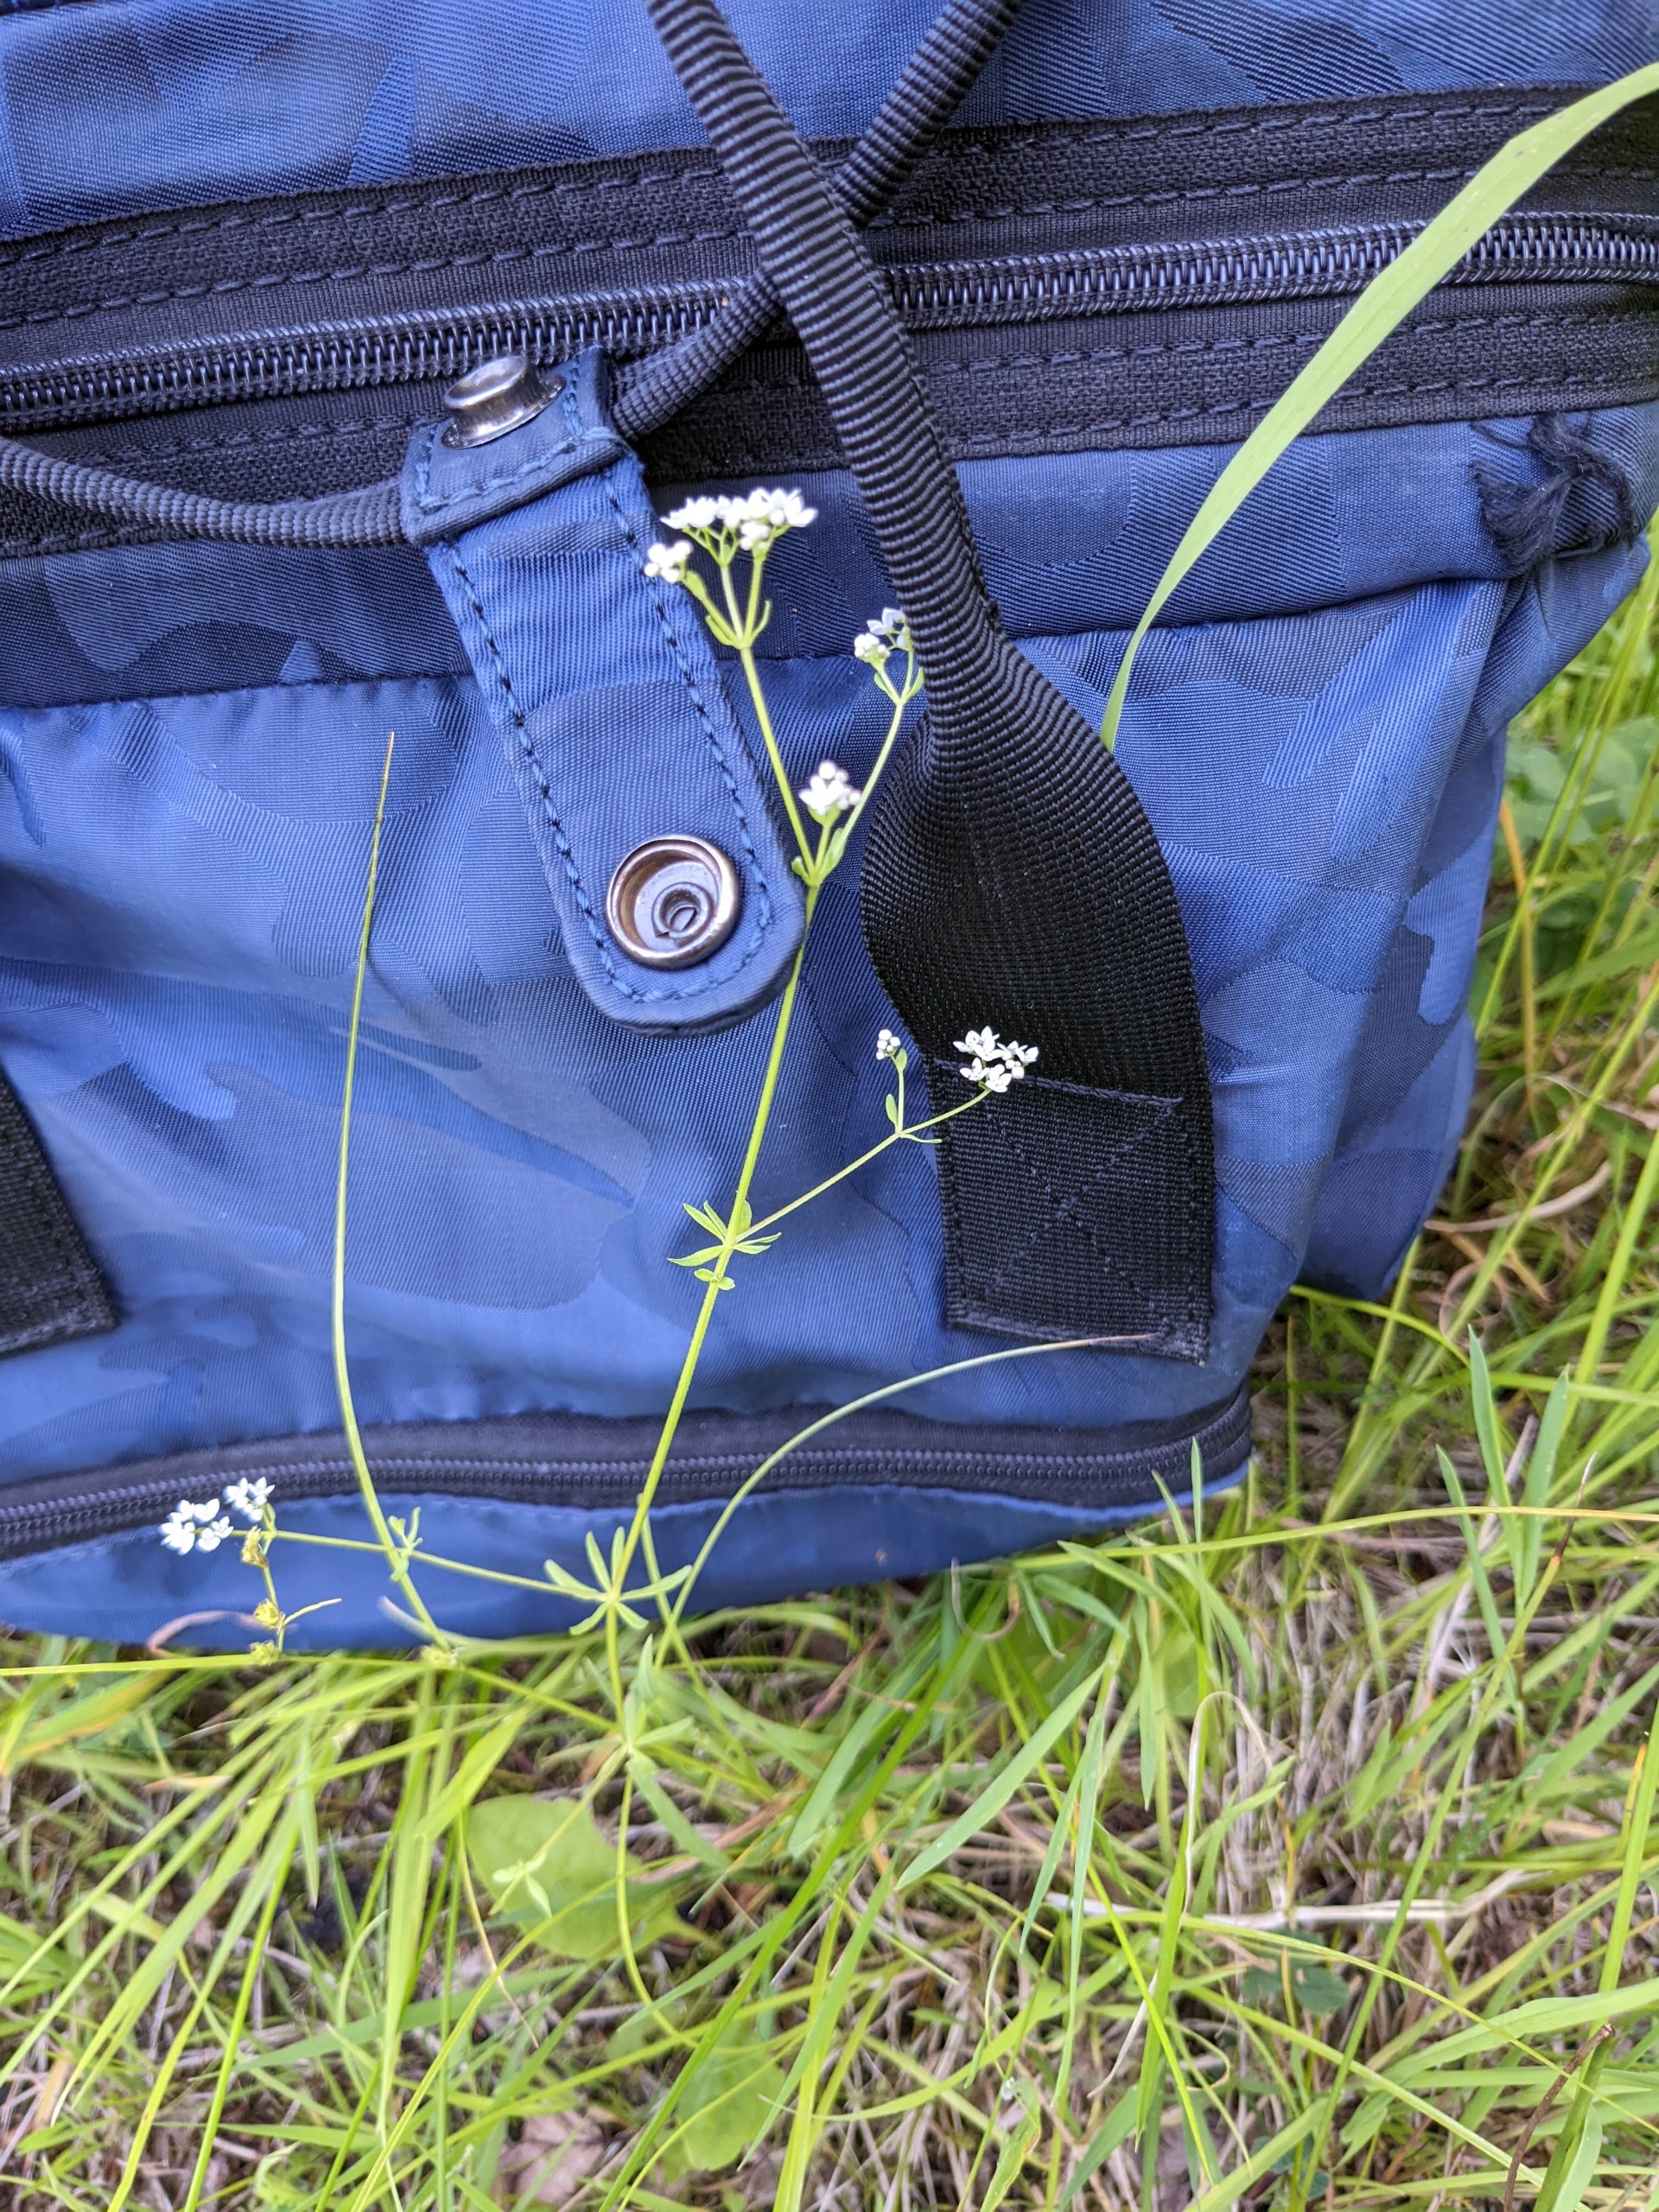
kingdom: Plantae
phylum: Tracheophyta
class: Magnoliopsida
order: Gentianales
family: Rubiaceae
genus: Galium
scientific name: Galium palustre
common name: Kær-snerre
